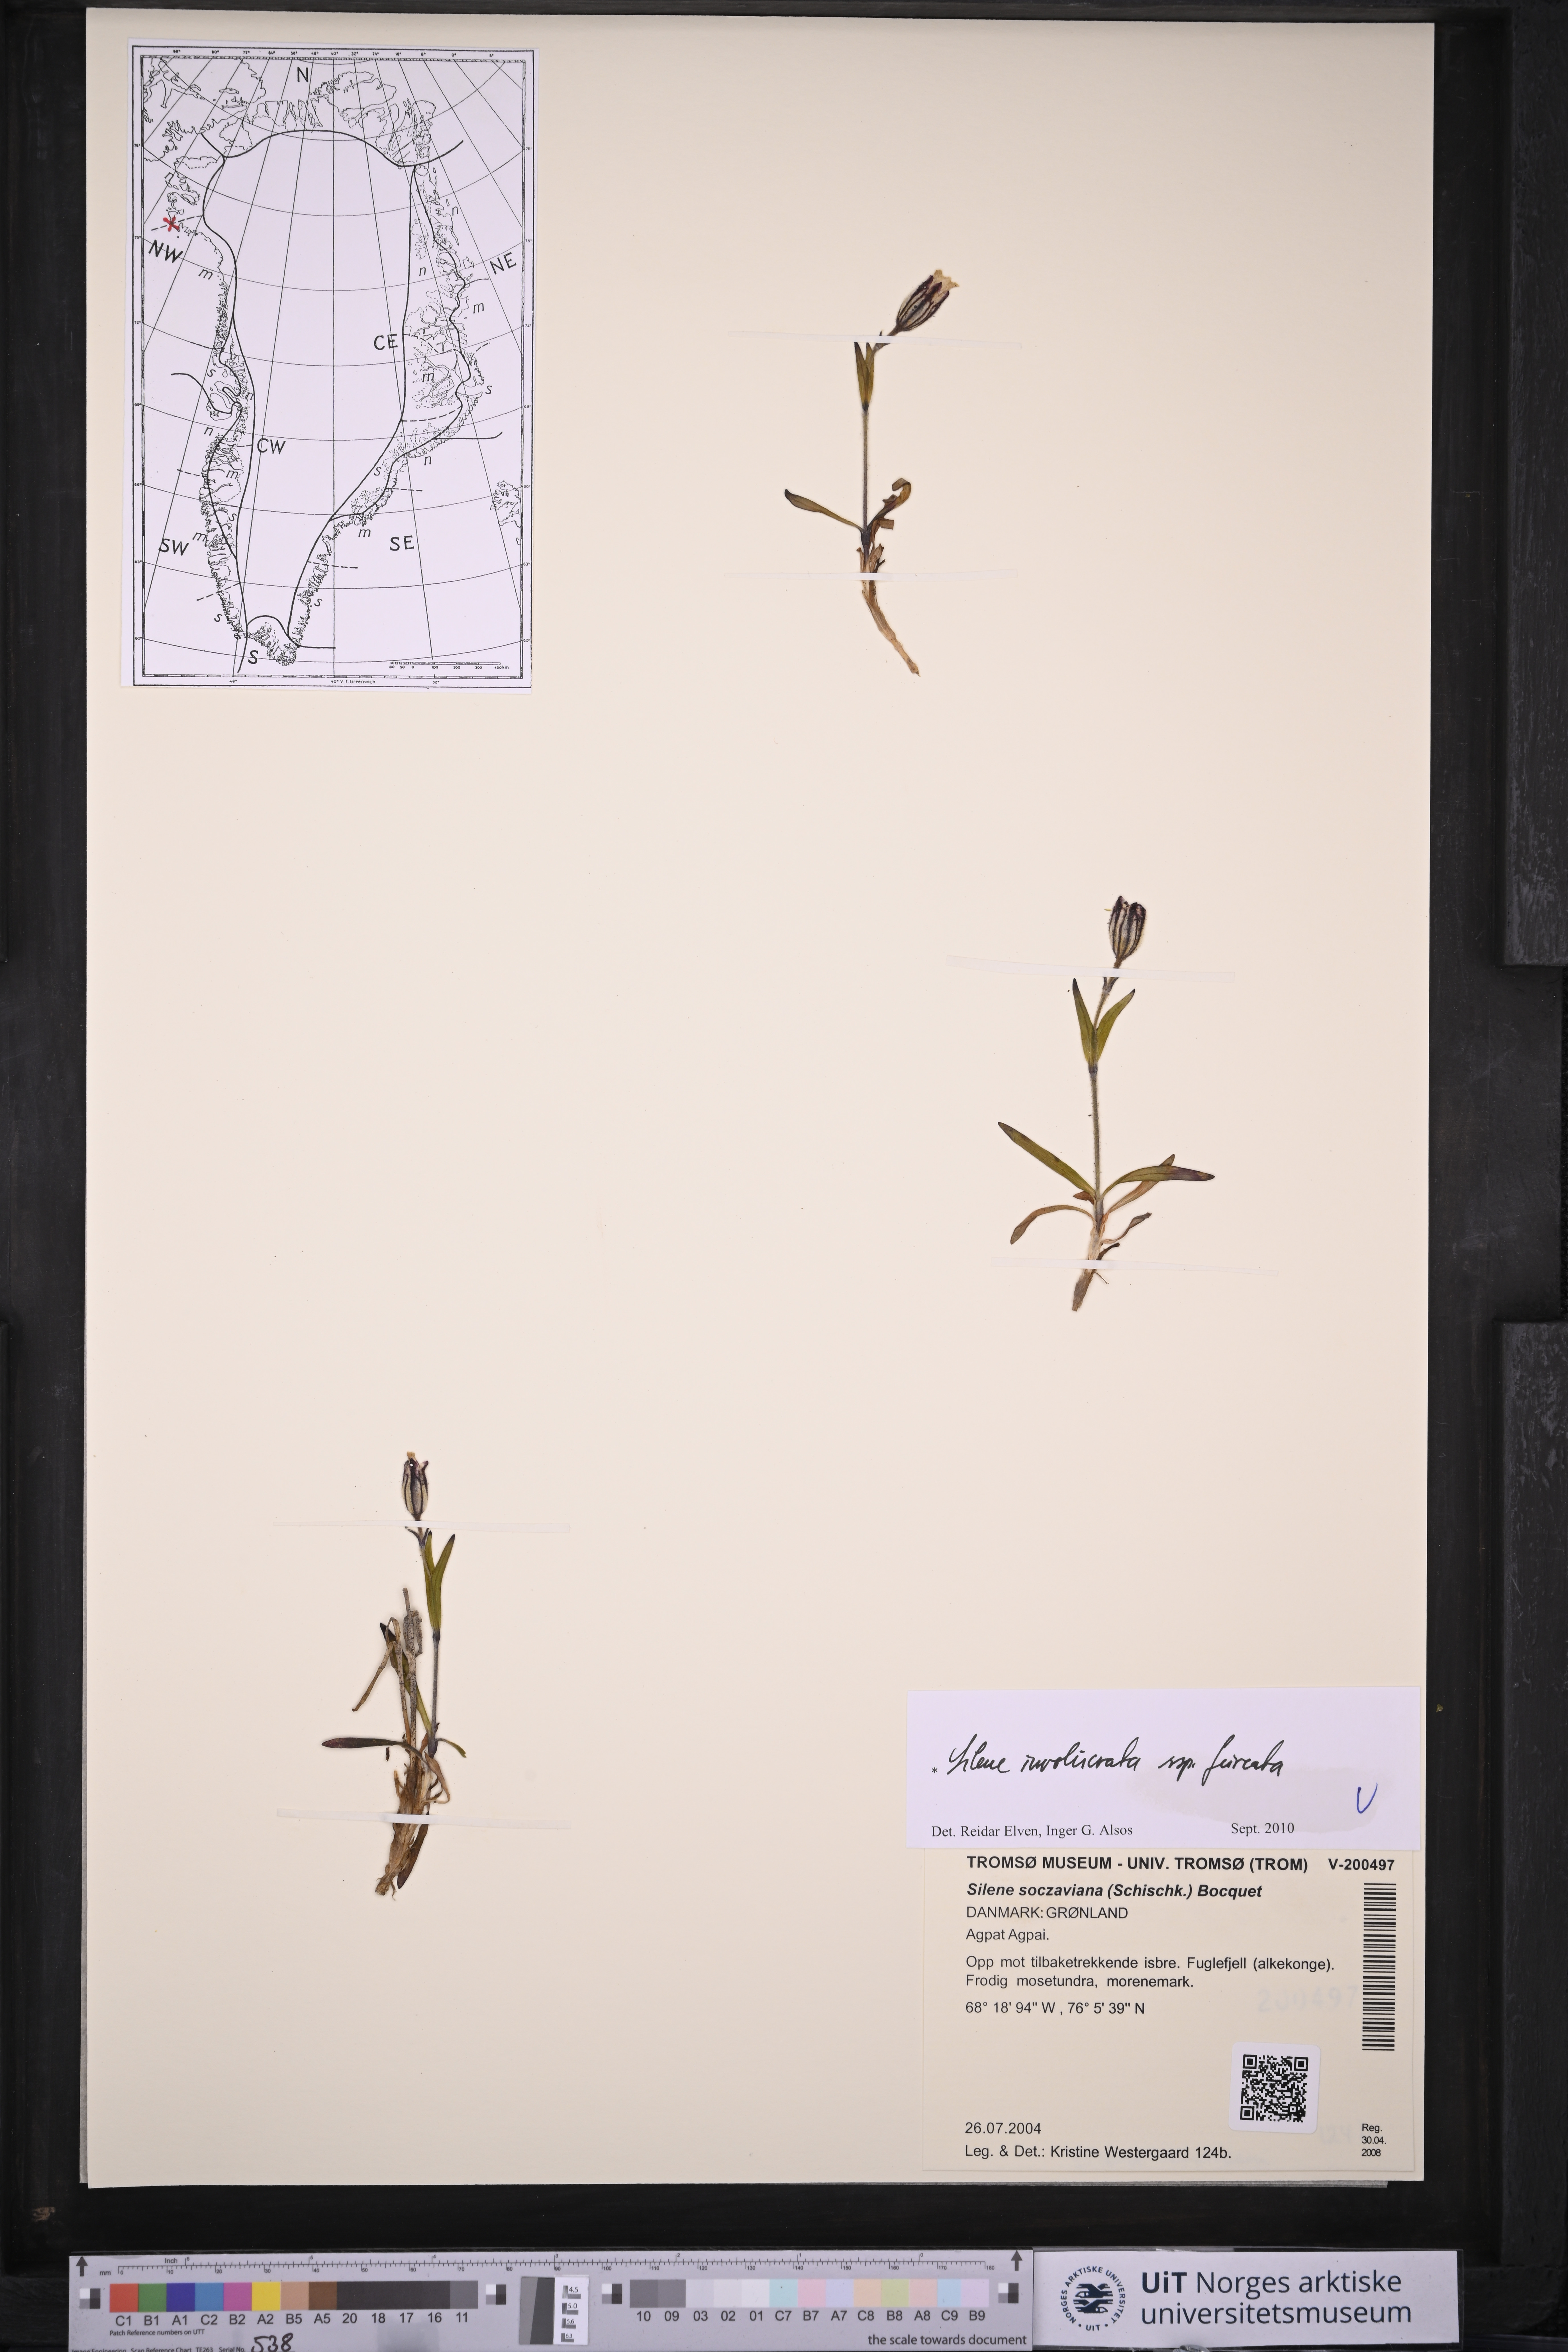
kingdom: Plantae
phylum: Tracheophyta
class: Magnoliopsida
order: Caryophyllales
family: Caryophyllaceae
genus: Silene
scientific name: Silene involucrata
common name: Greater arctic campion
